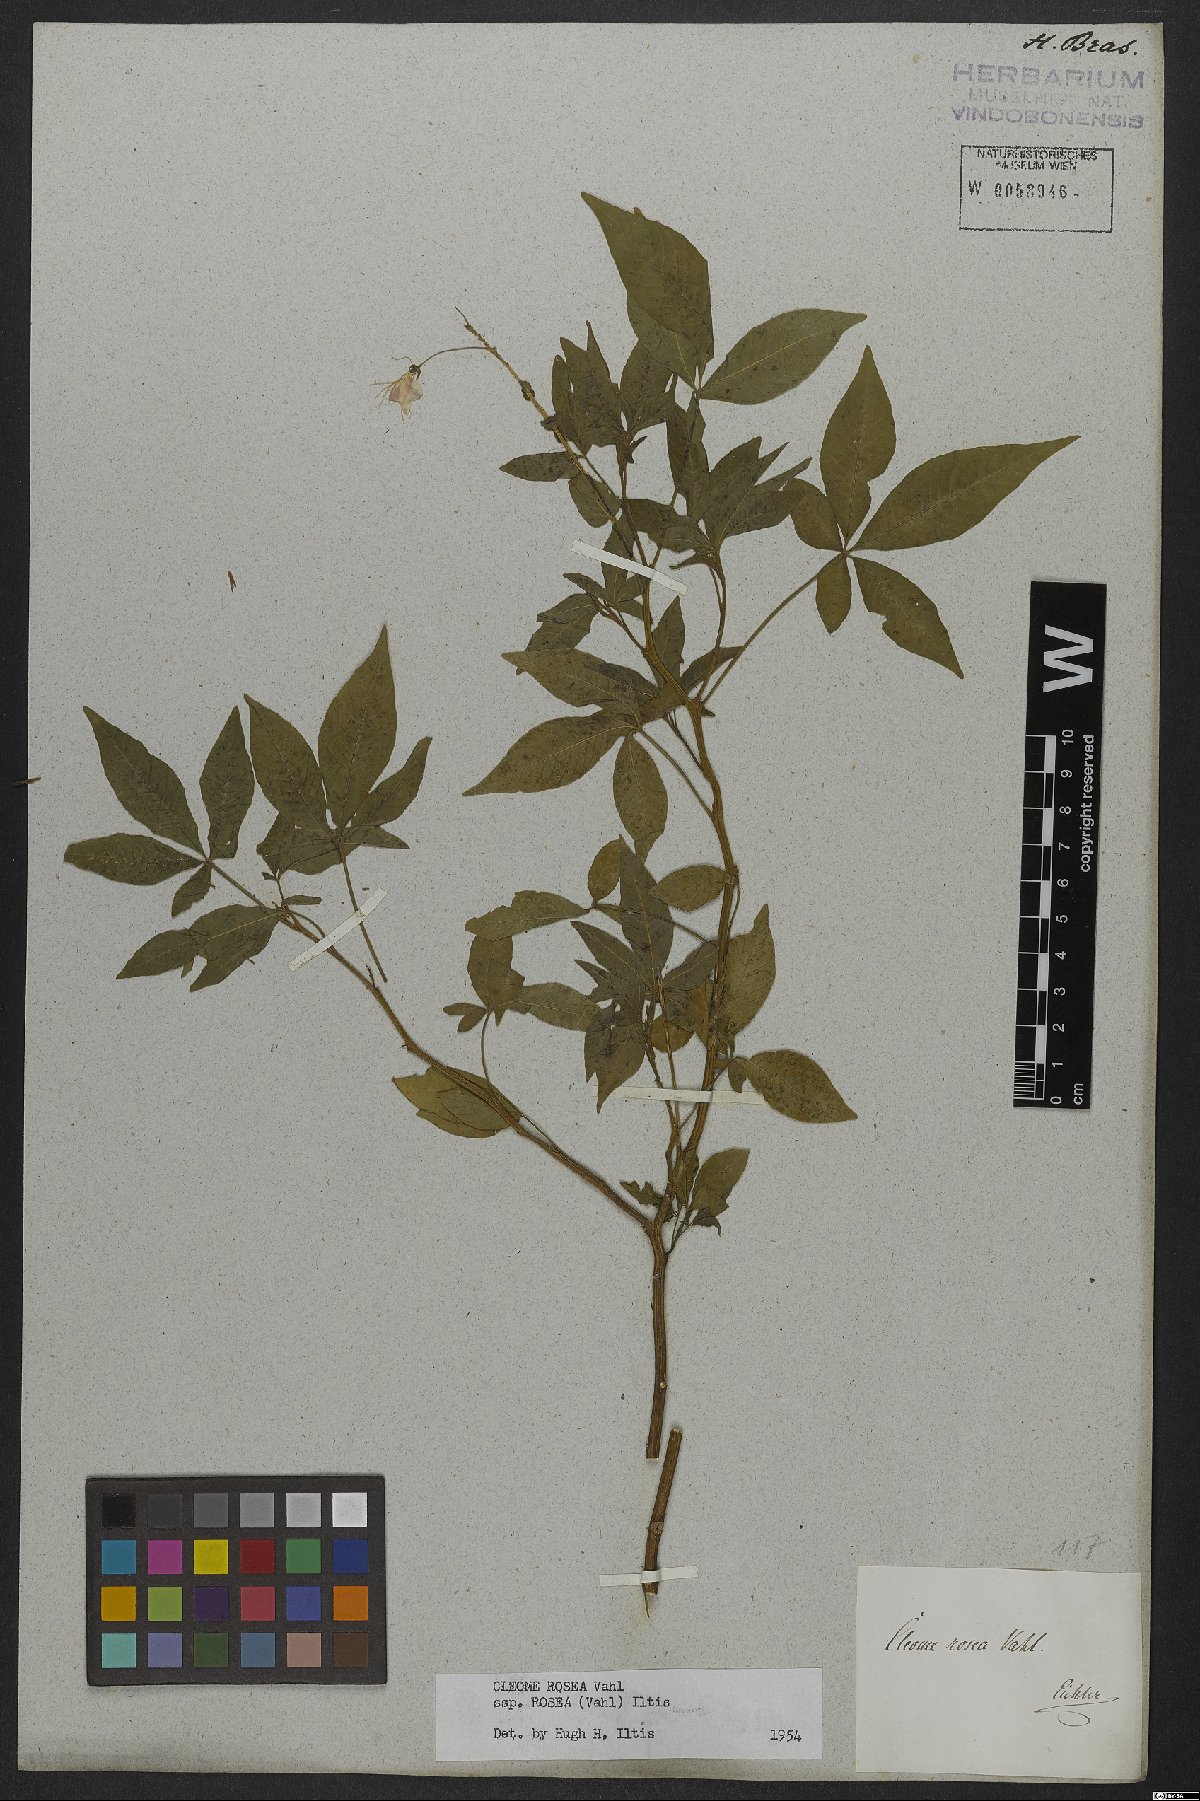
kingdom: Plantae
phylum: Tracheophyta
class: Magnoliopsida
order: Brassicales
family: Cleomaceae
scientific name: Cleomaceae
